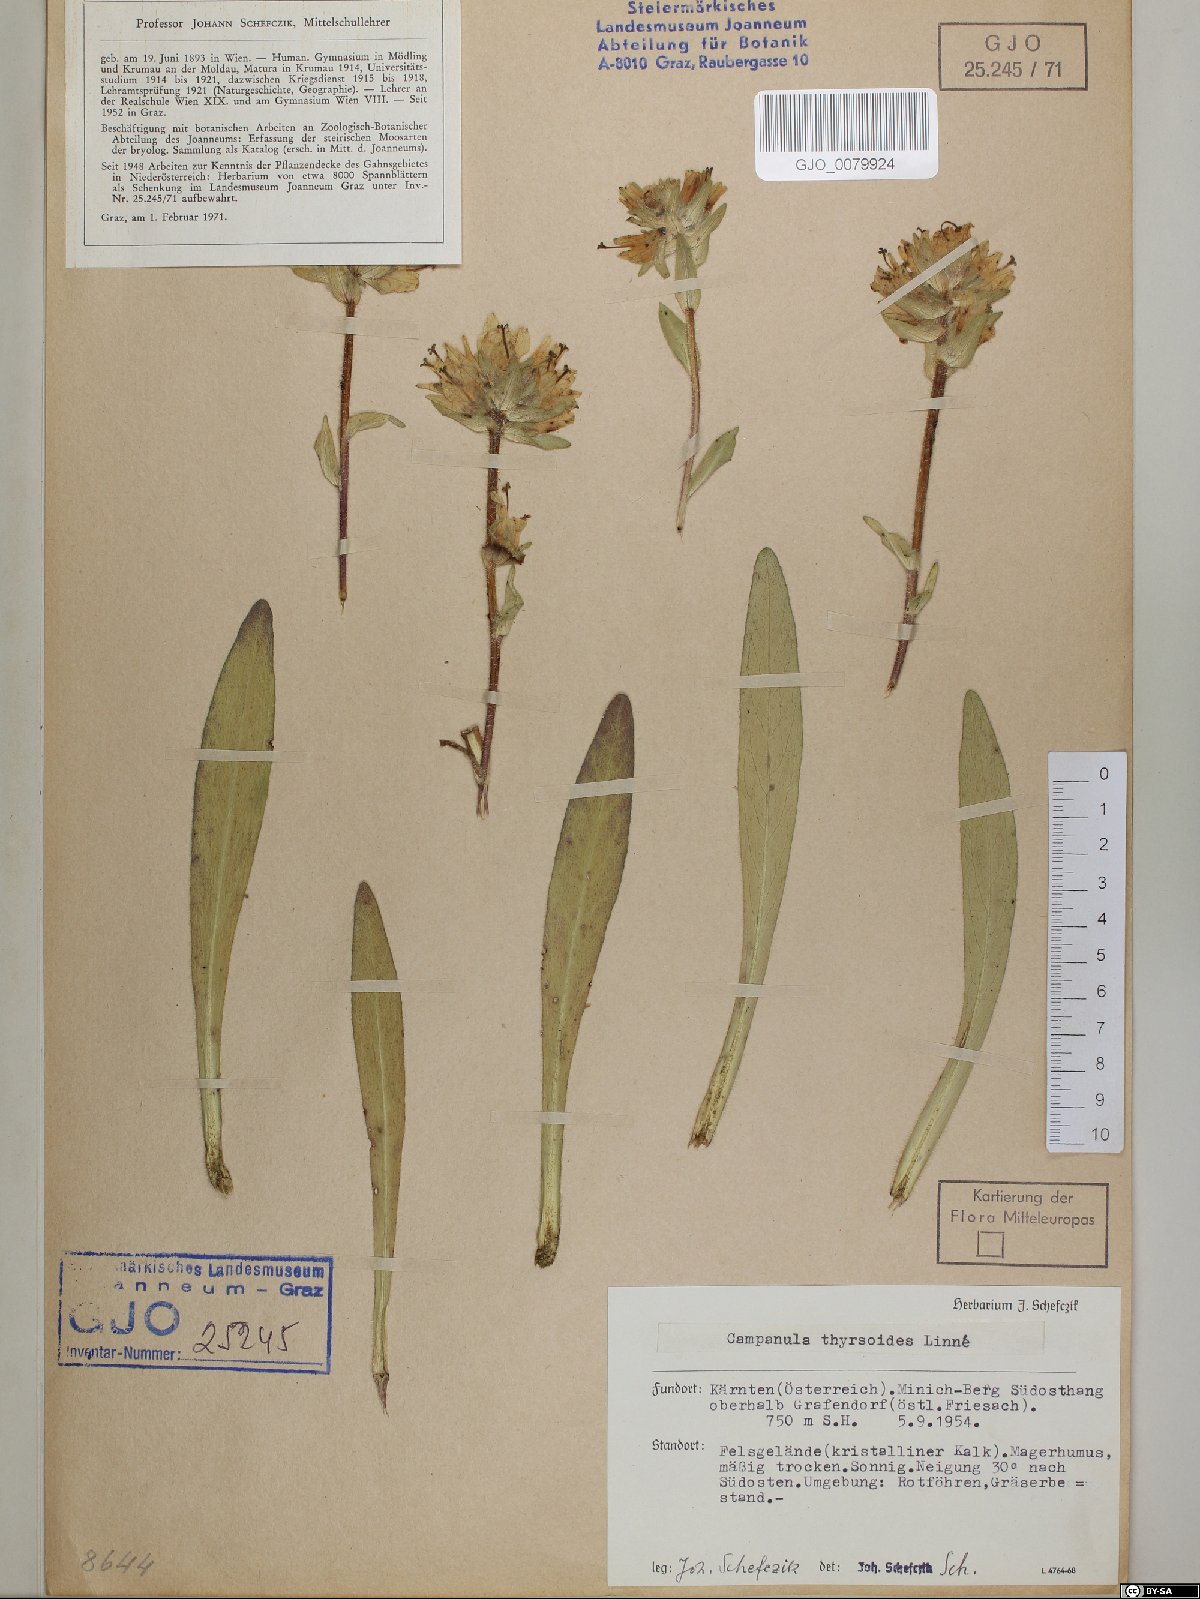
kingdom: Plantae
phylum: Tracheophyta
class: Magnoliopsida
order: Asterales
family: Campanulaceae
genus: Campanula
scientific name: Campanula thyrsoides
